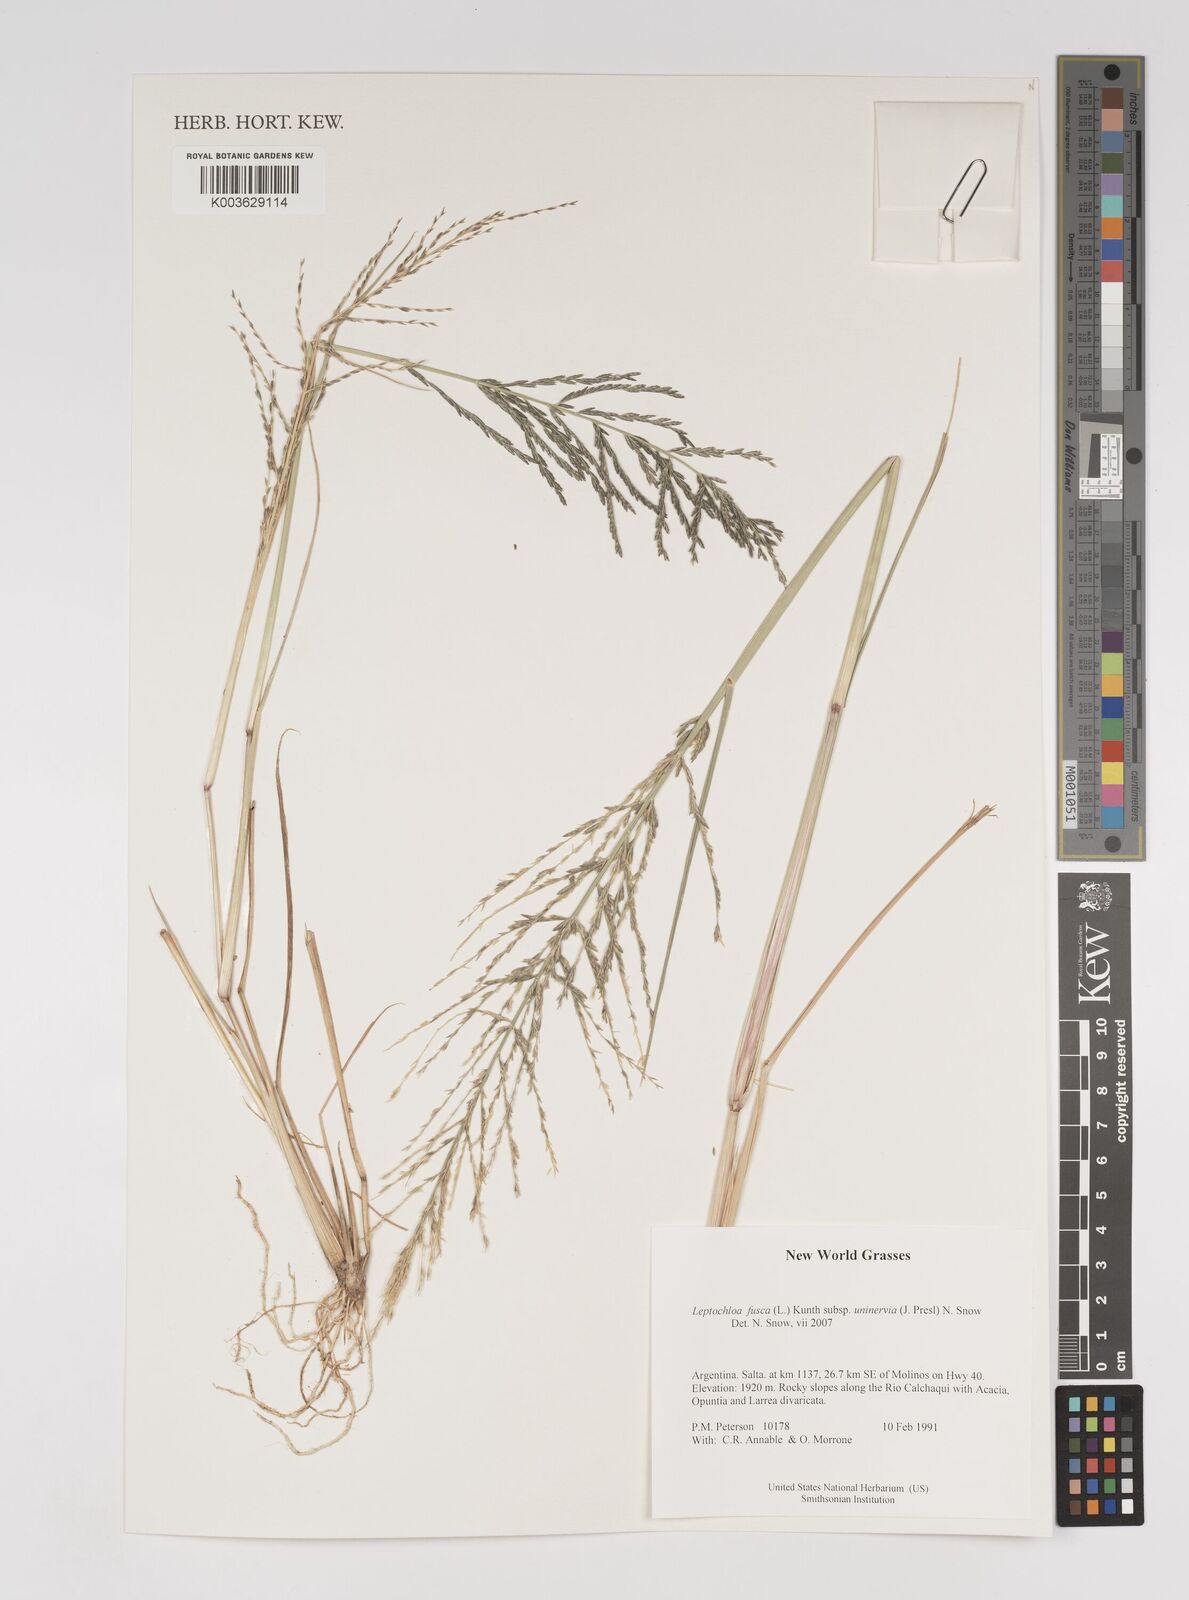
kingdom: Plantae
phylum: Tracheophyta
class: Liliopsida
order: Poales
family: Poaceae
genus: Diplachne
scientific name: Diplachne fusca
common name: Brown beetle grass
